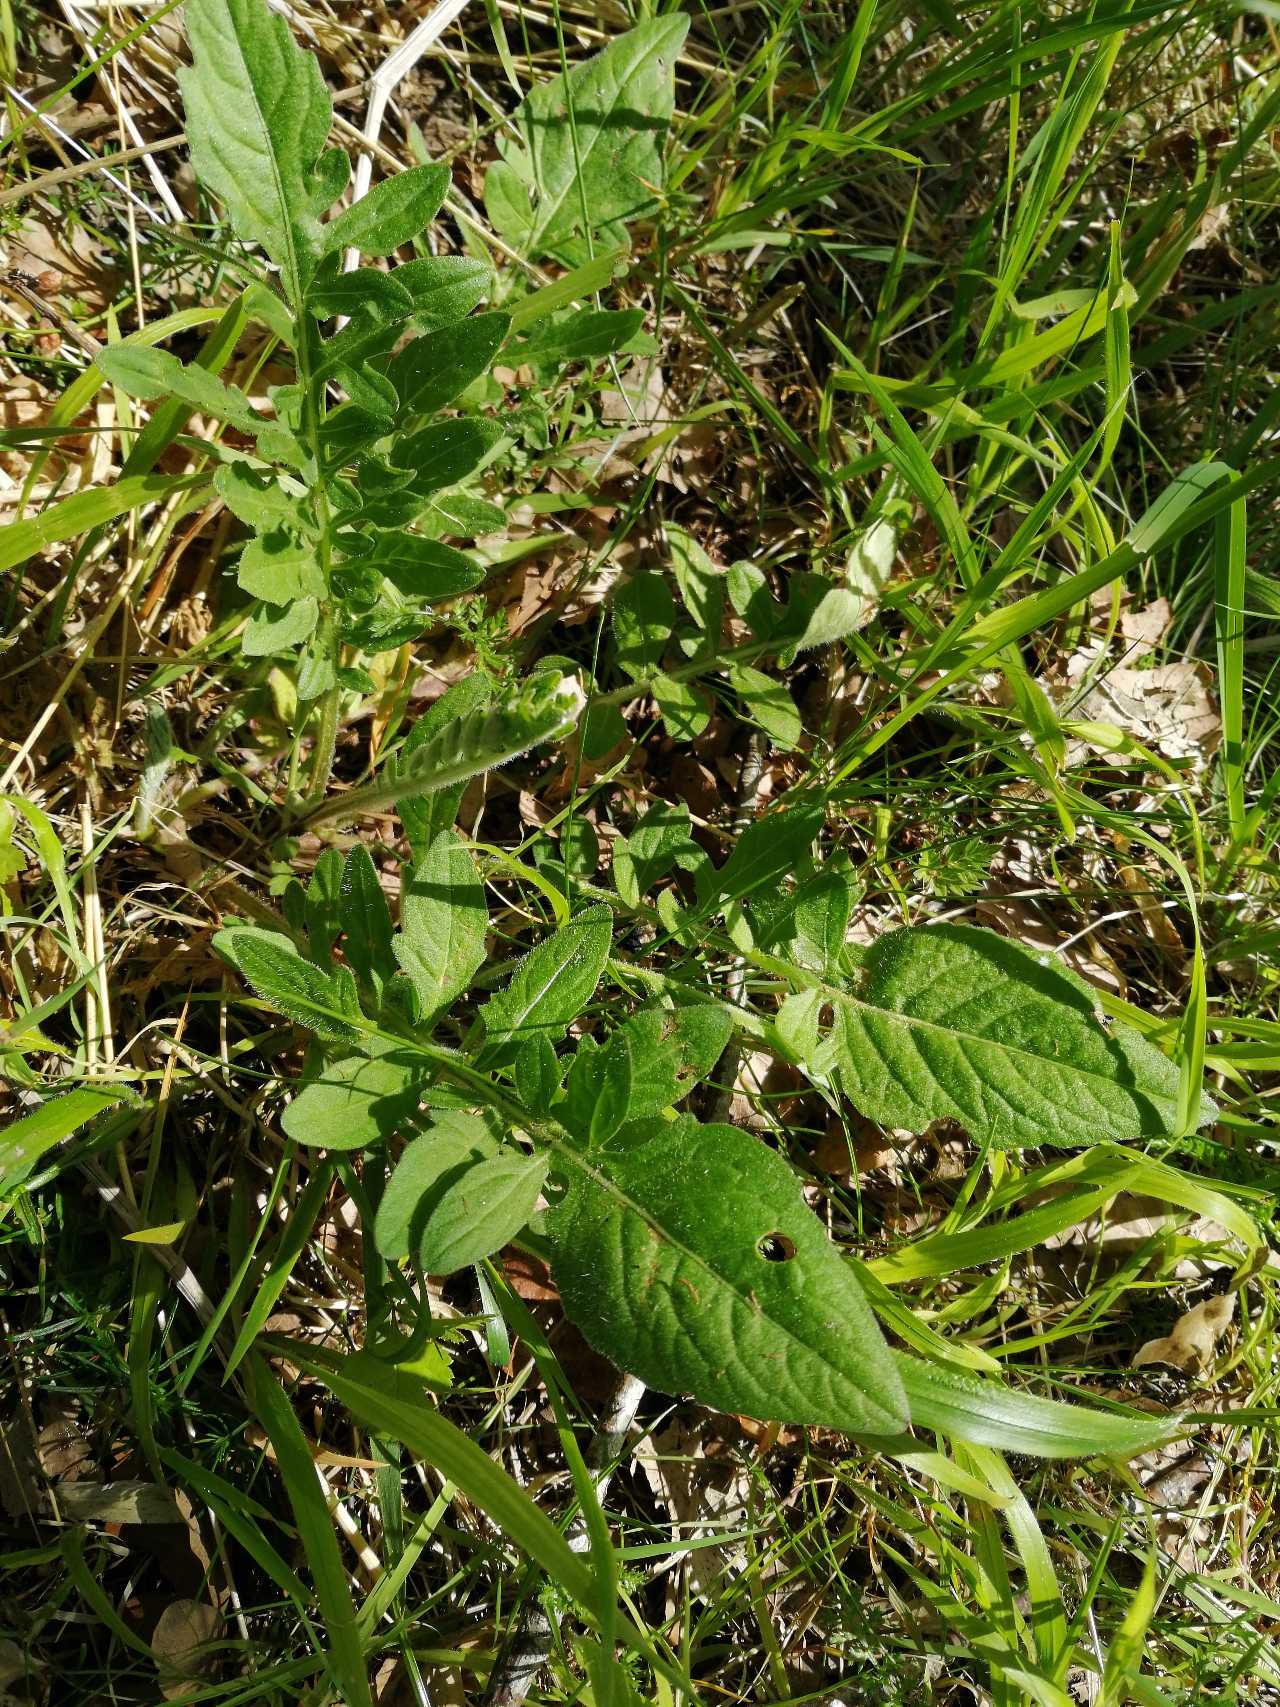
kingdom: Plantae
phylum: Tracheophyta
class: Magnoliopsida
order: Asterales
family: Asteraceae
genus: Centaurea
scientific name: Centaurea scabiosa
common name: Stor knopurt
